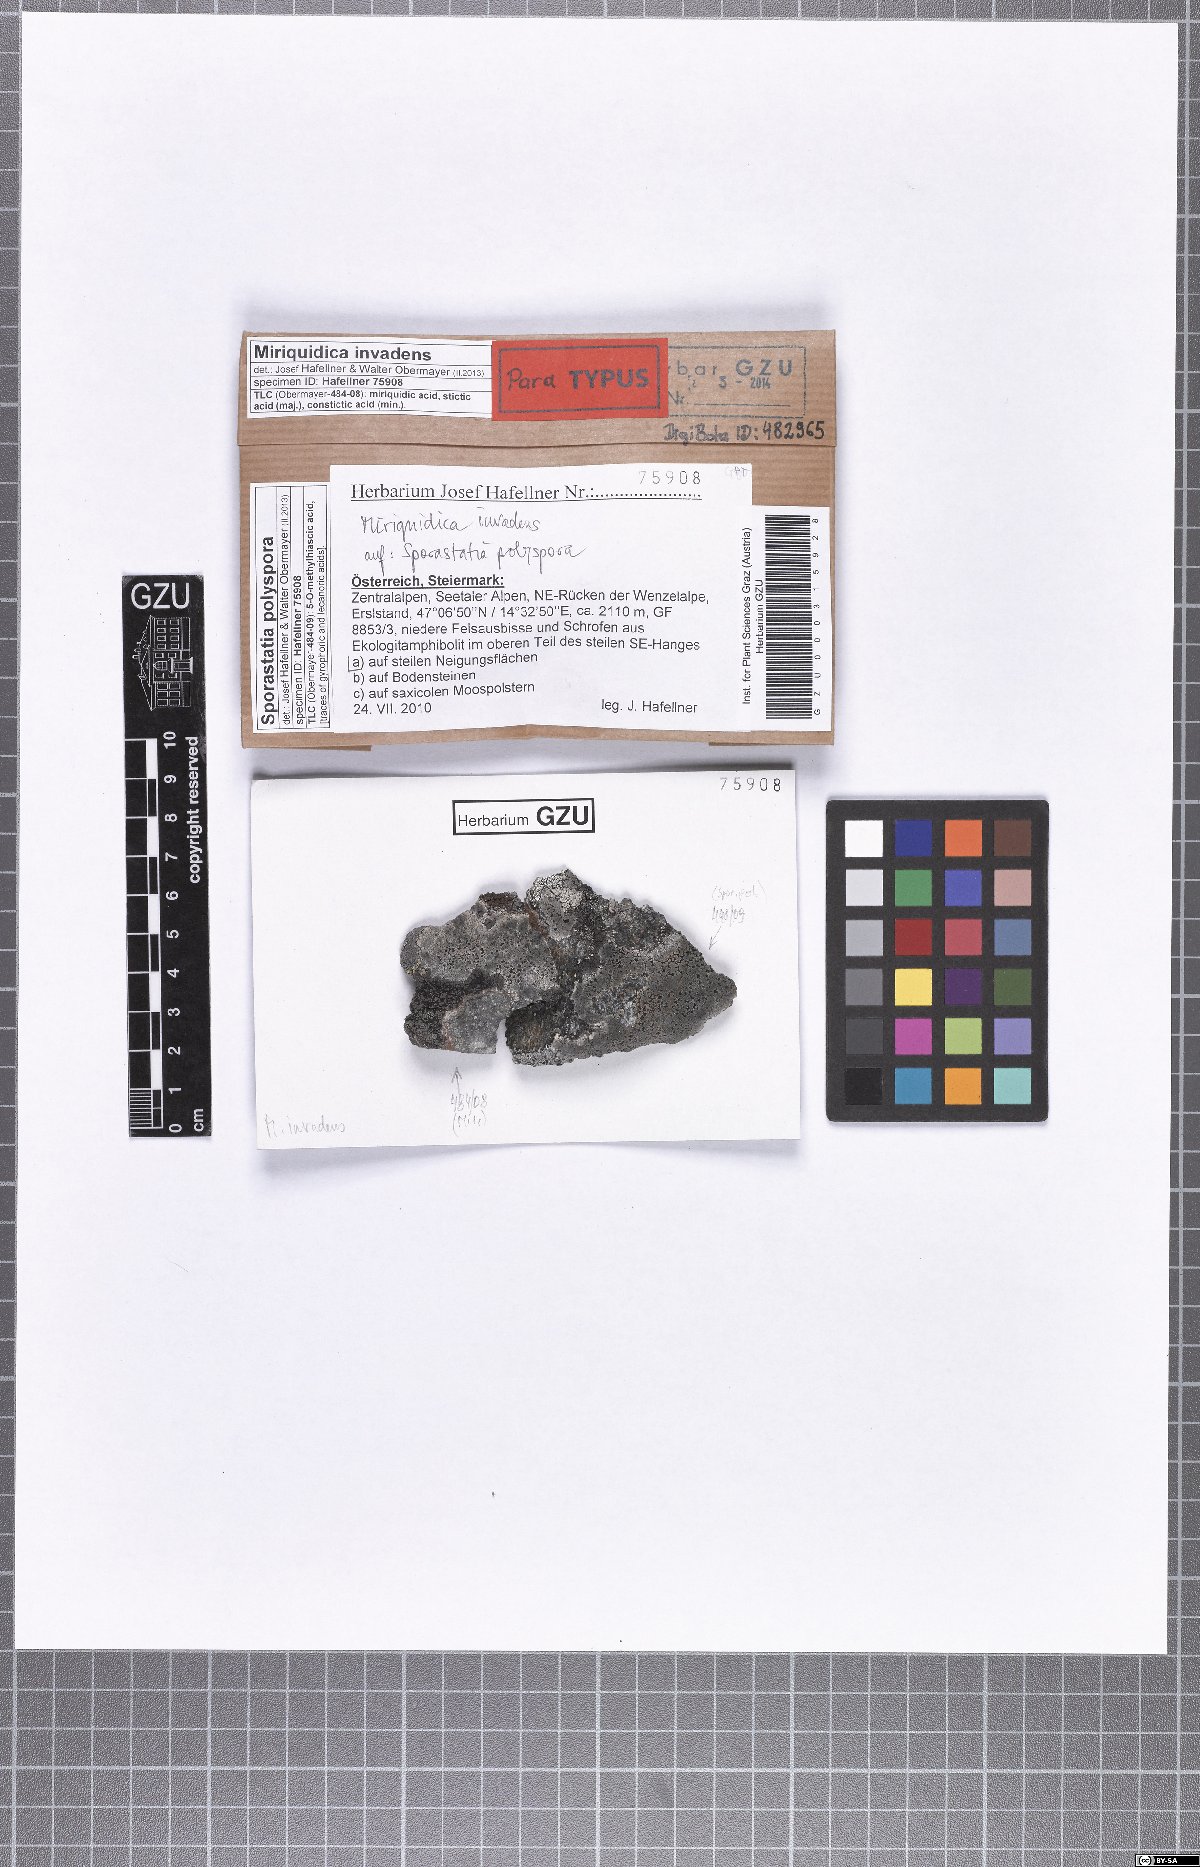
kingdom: Fungi
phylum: Ascomycota
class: Lecanoromycetes
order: Lecanorales
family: Lecanoraceae
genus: Miriquidica
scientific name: Miriquidica invadens
